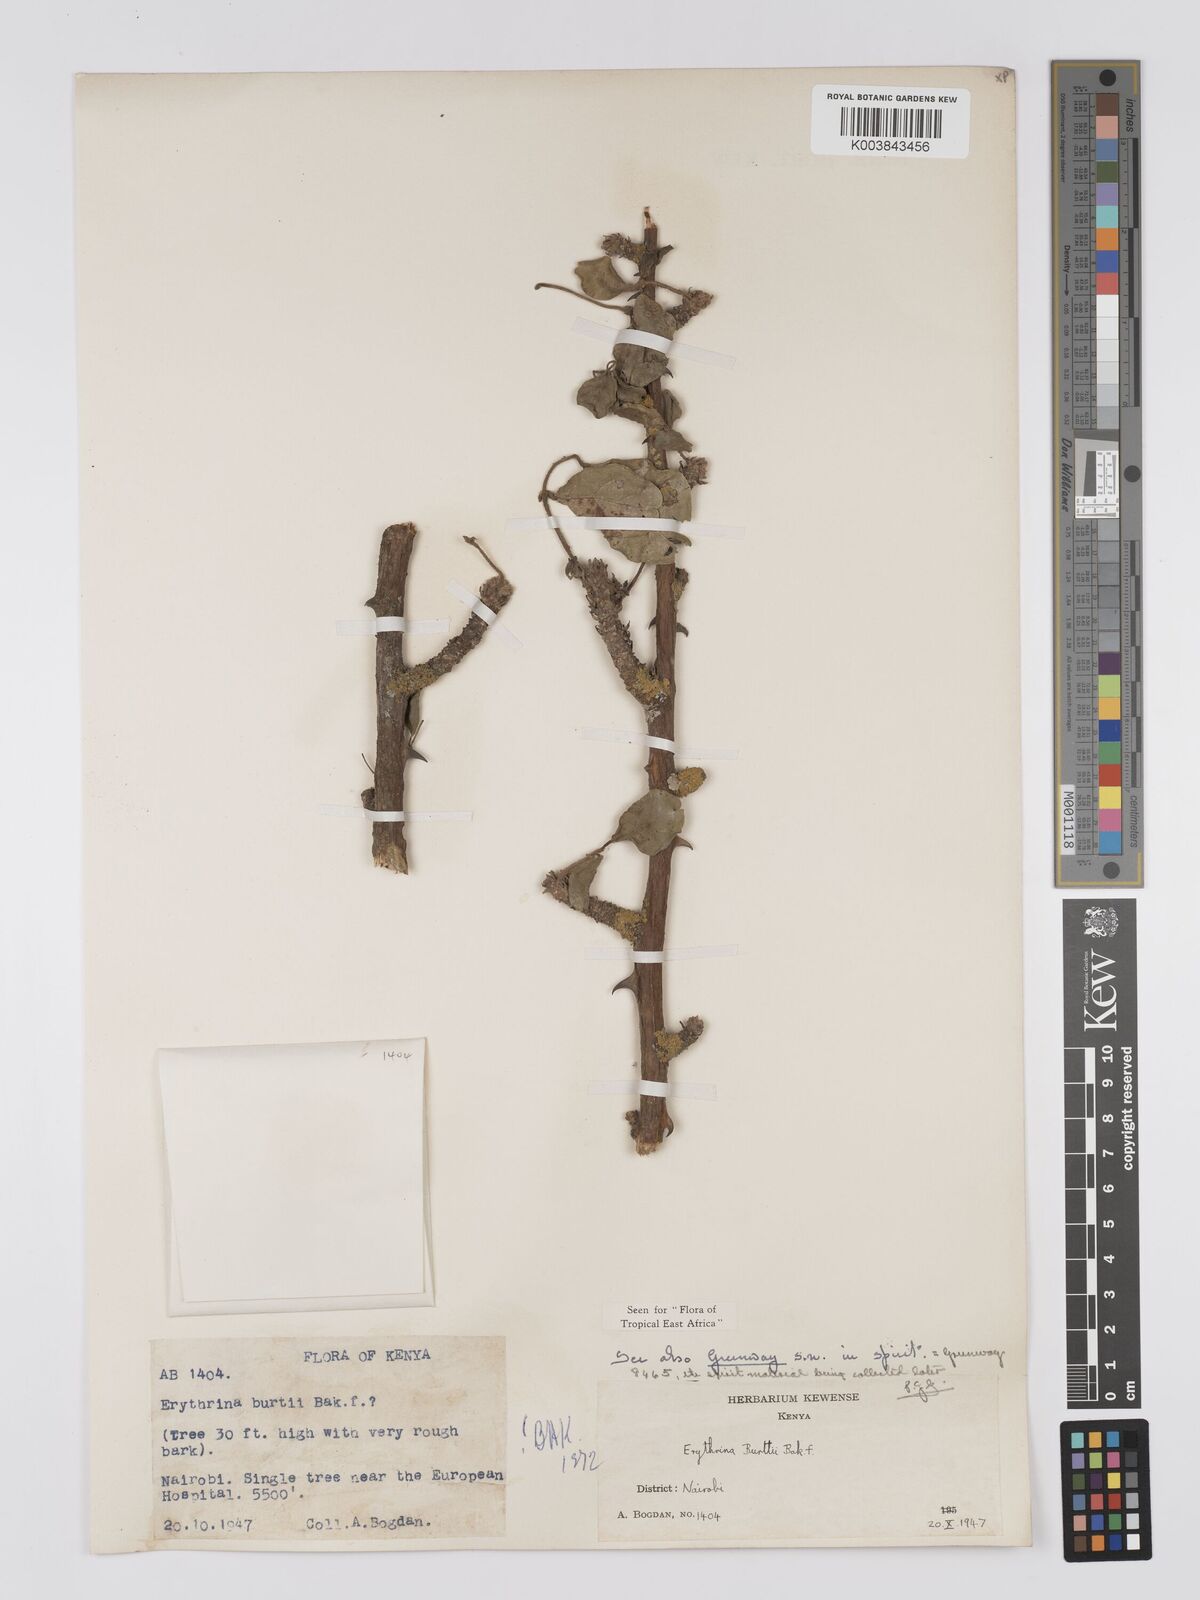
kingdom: Plantae
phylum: Tracheophyta
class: Magnoliopsida
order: Fabales
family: Fabaceae
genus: Erythrina
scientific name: Erythrina burttii
